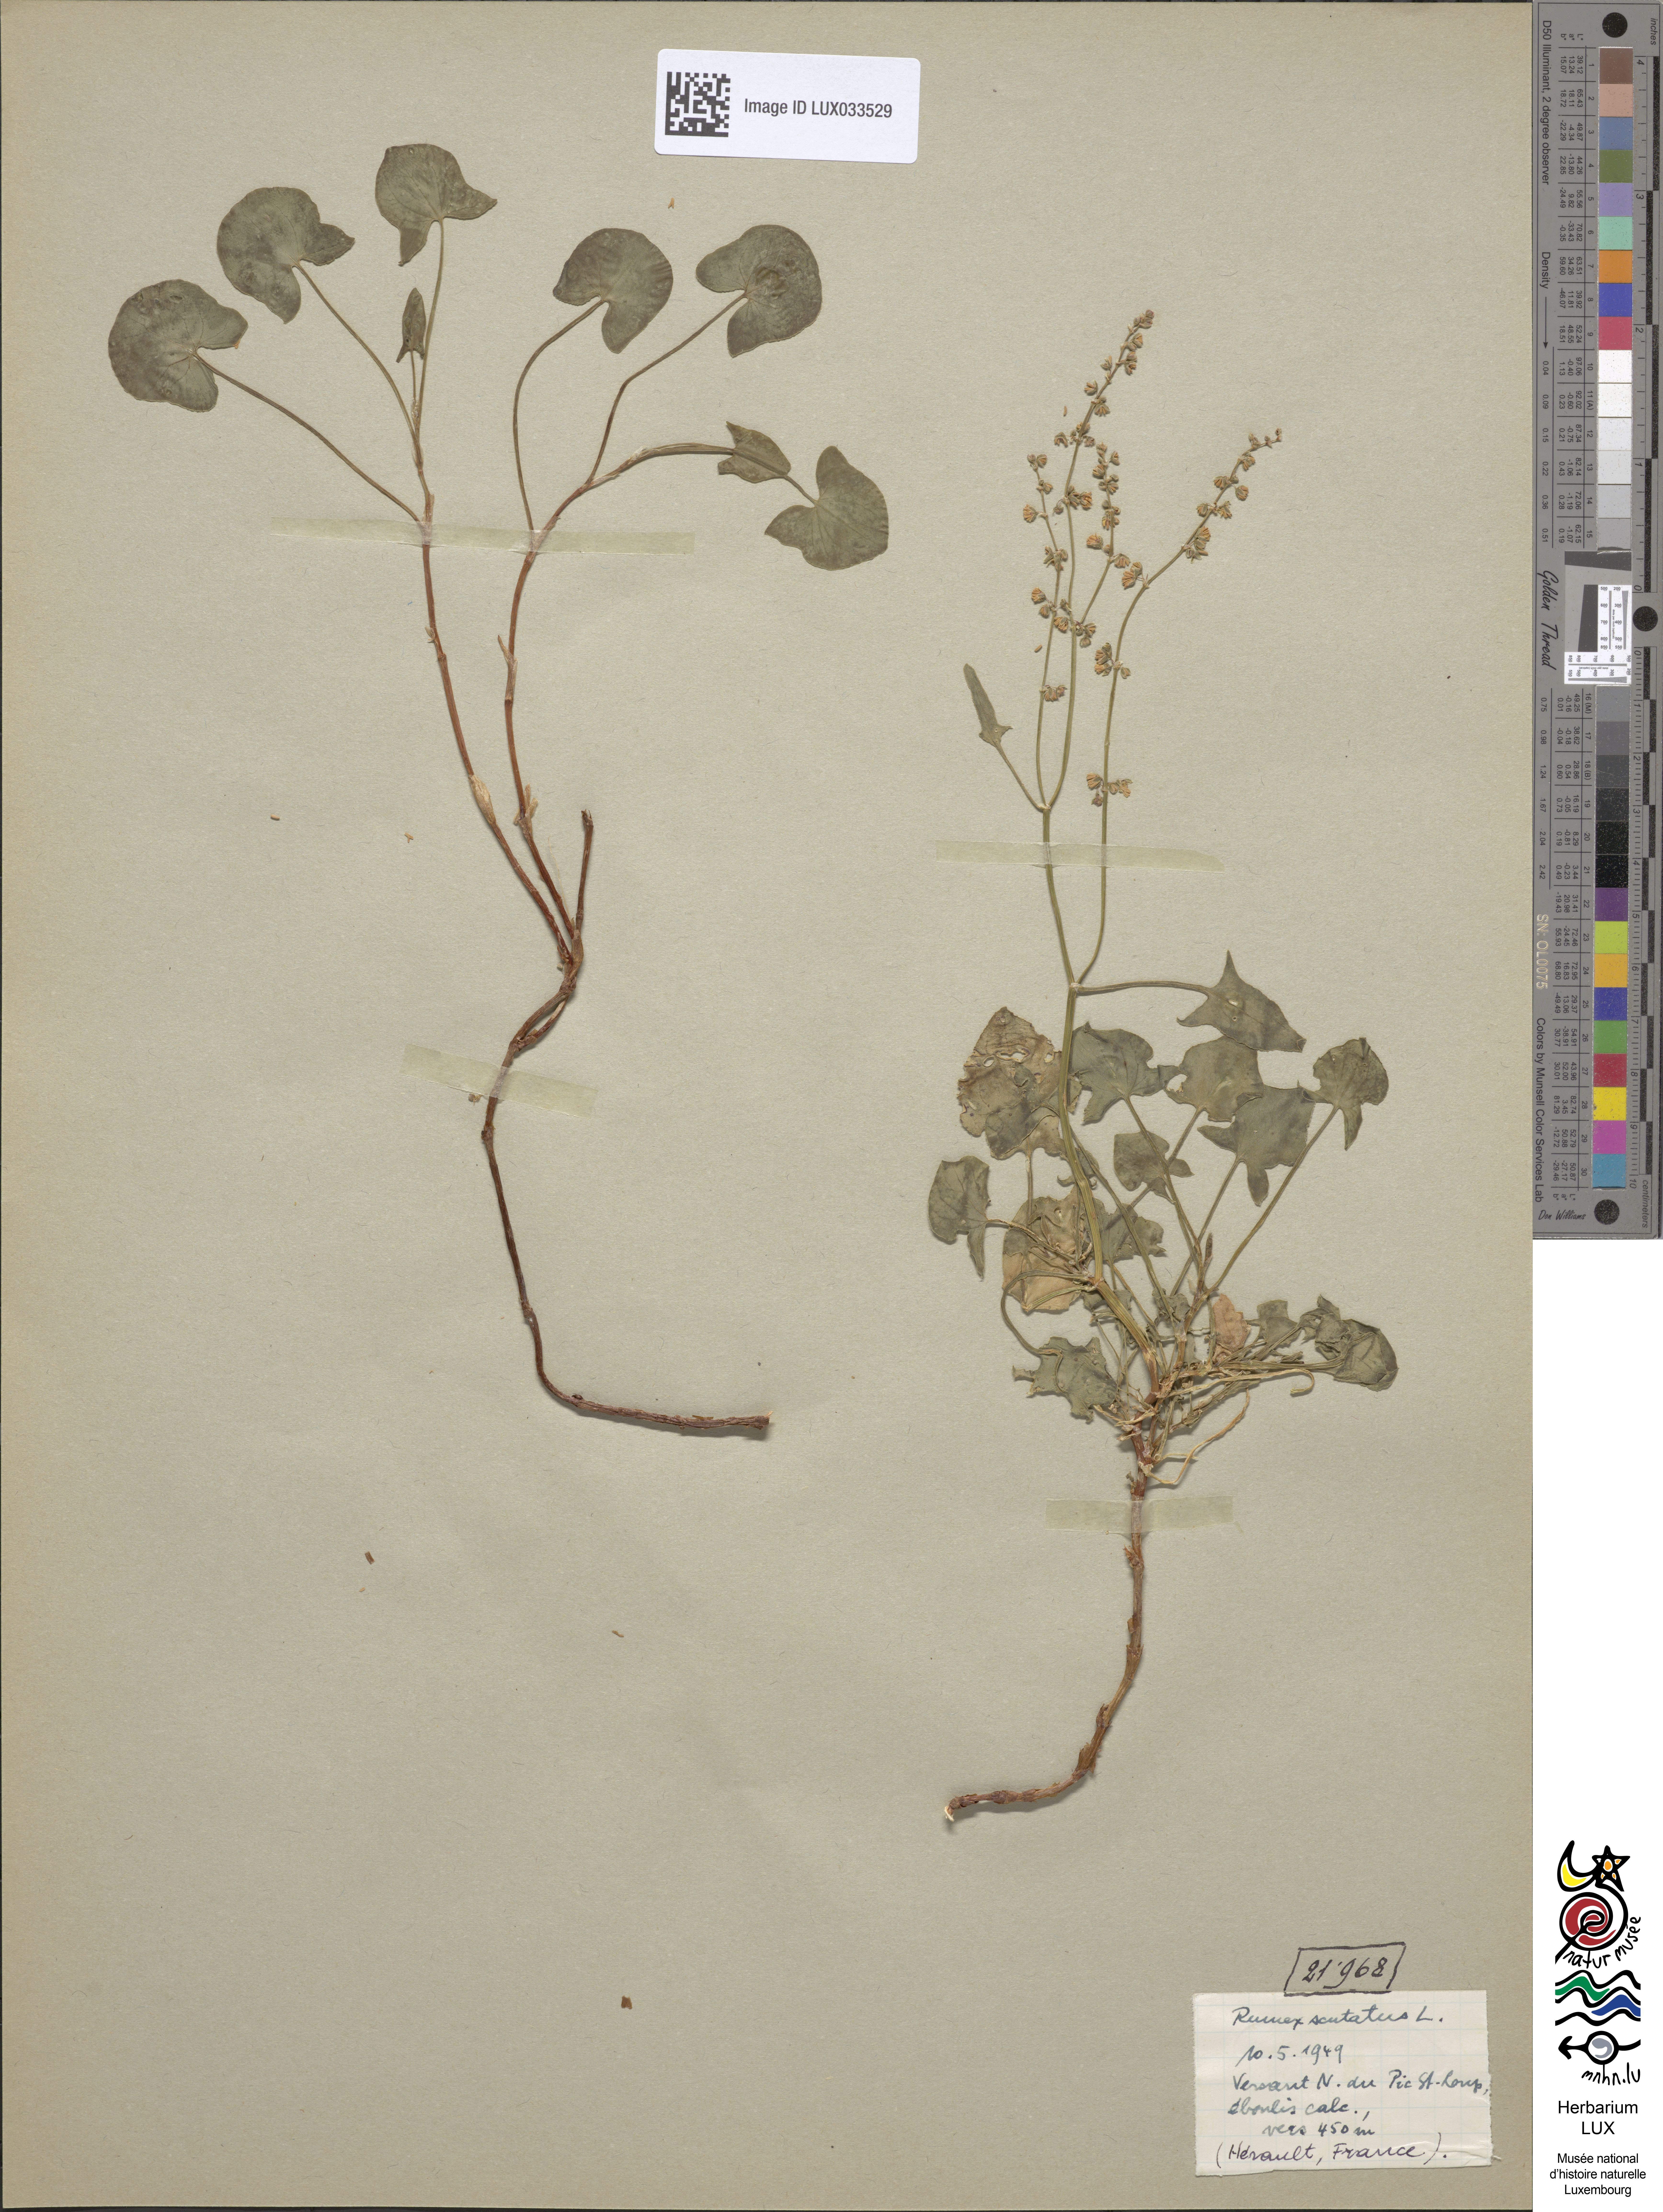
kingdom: Plantae
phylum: Tracheophyta
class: Magnoliopsida
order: Caryophyllales
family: Polygonaceae
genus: Rumex
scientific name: Rumex scutatus
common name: French sorrel
